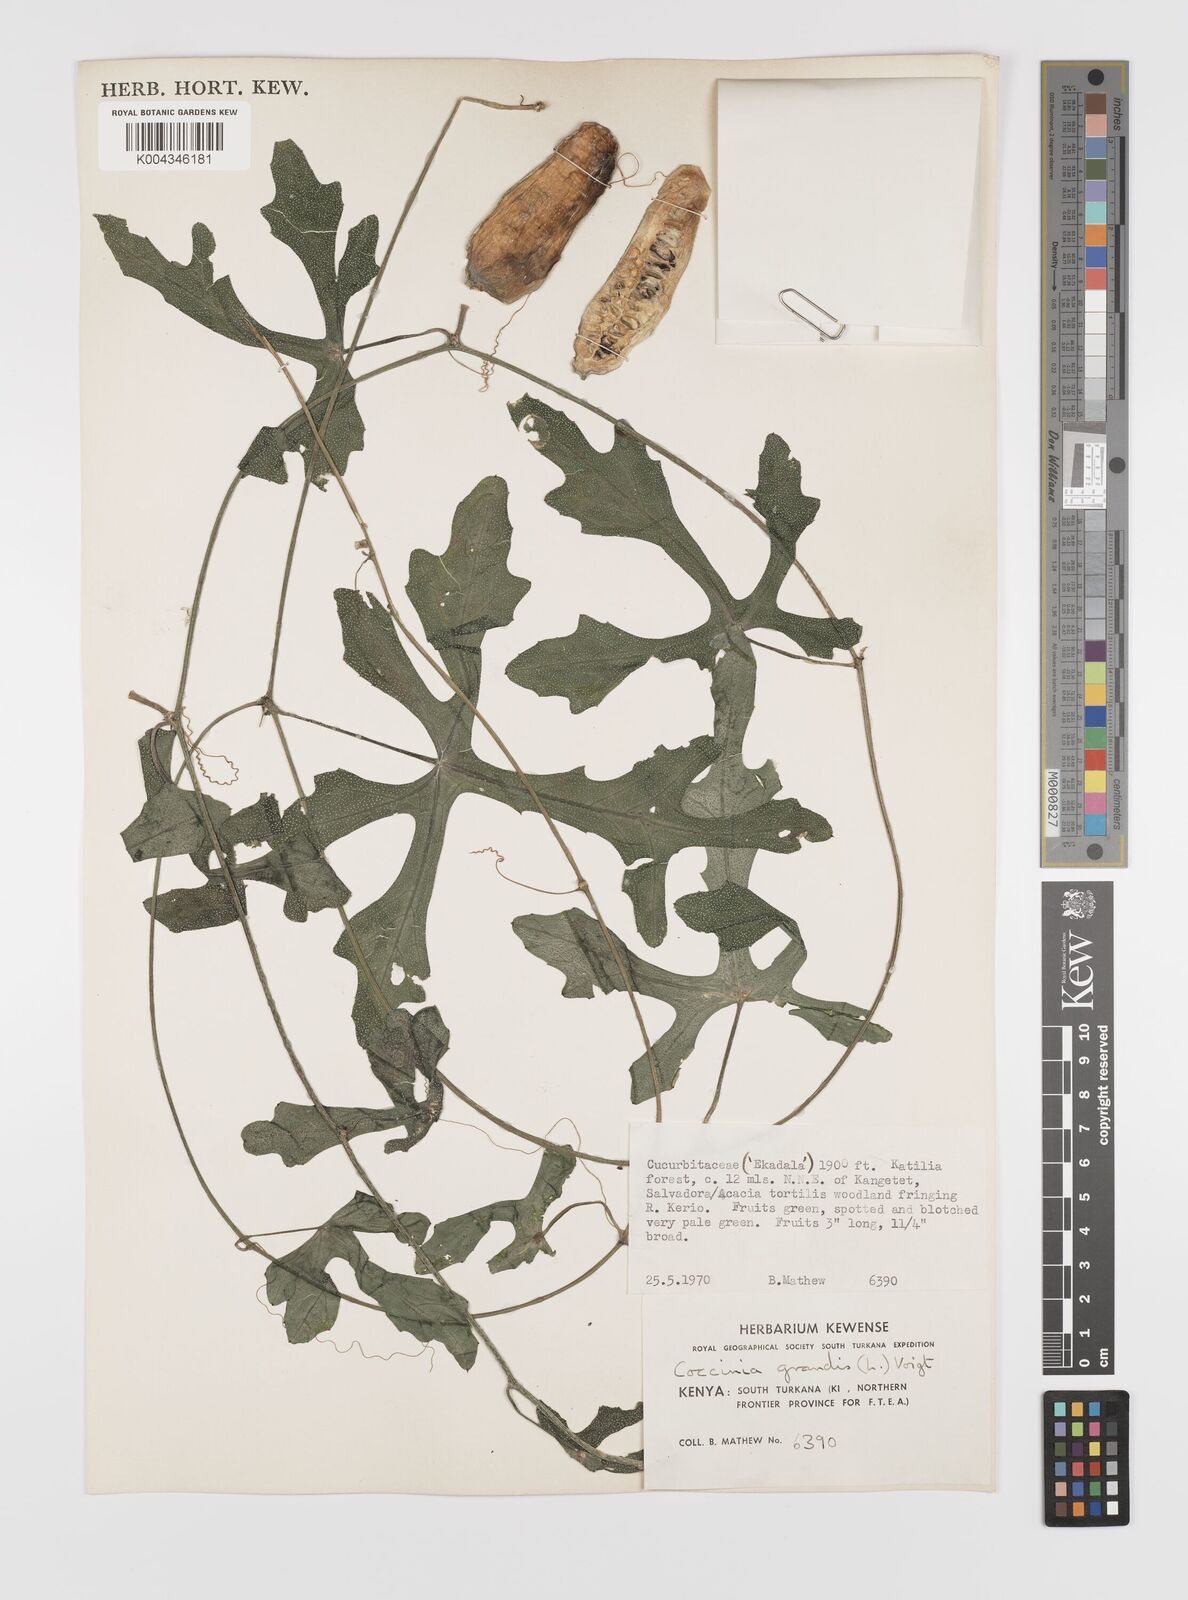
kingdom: Plantae
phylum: Tracheophyta
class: Magnoliopsida
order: Cucurbitales
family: Cucurbitaceae
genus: Coccinia
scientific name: Coccinia grandis
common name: Ivy gourd
